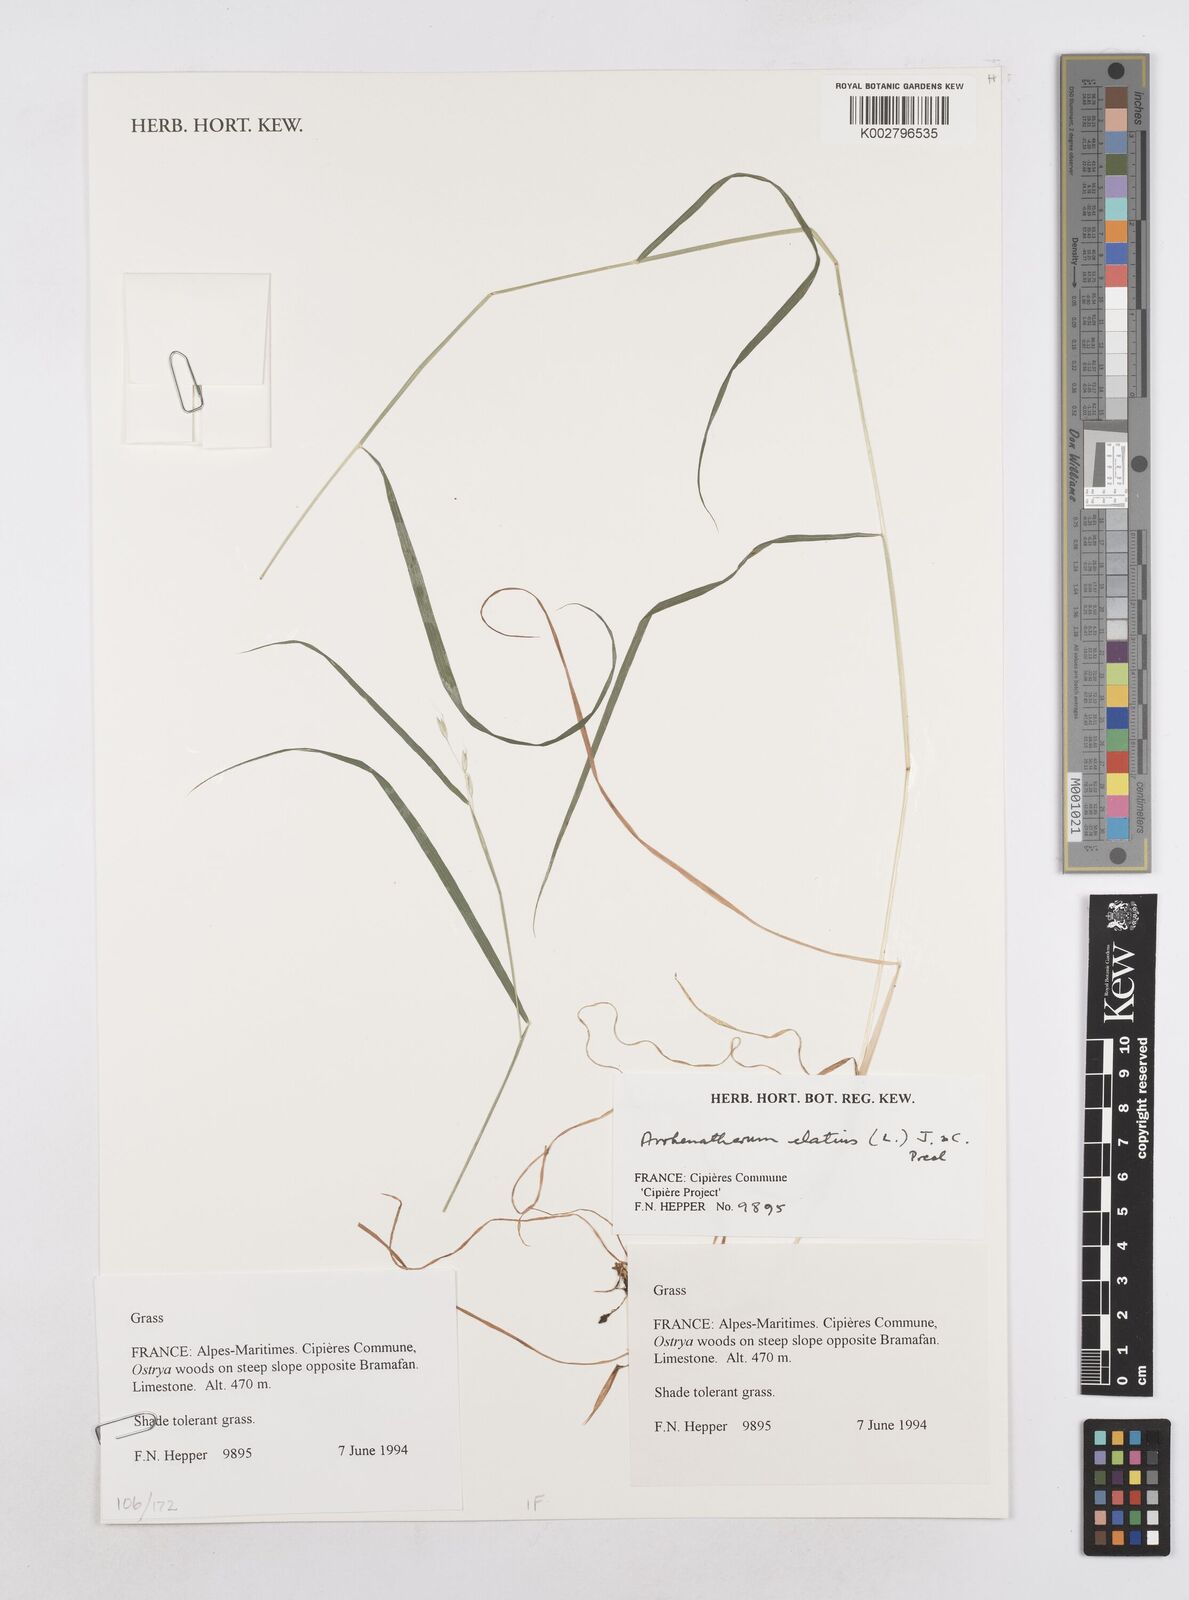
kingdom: Plantae
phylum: Tracheophyta
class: Liliopsida
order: Poales
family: Poaceae
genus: Arrhenatherum
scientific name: Arrhenatherum elatius
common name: Tall oatgrass
